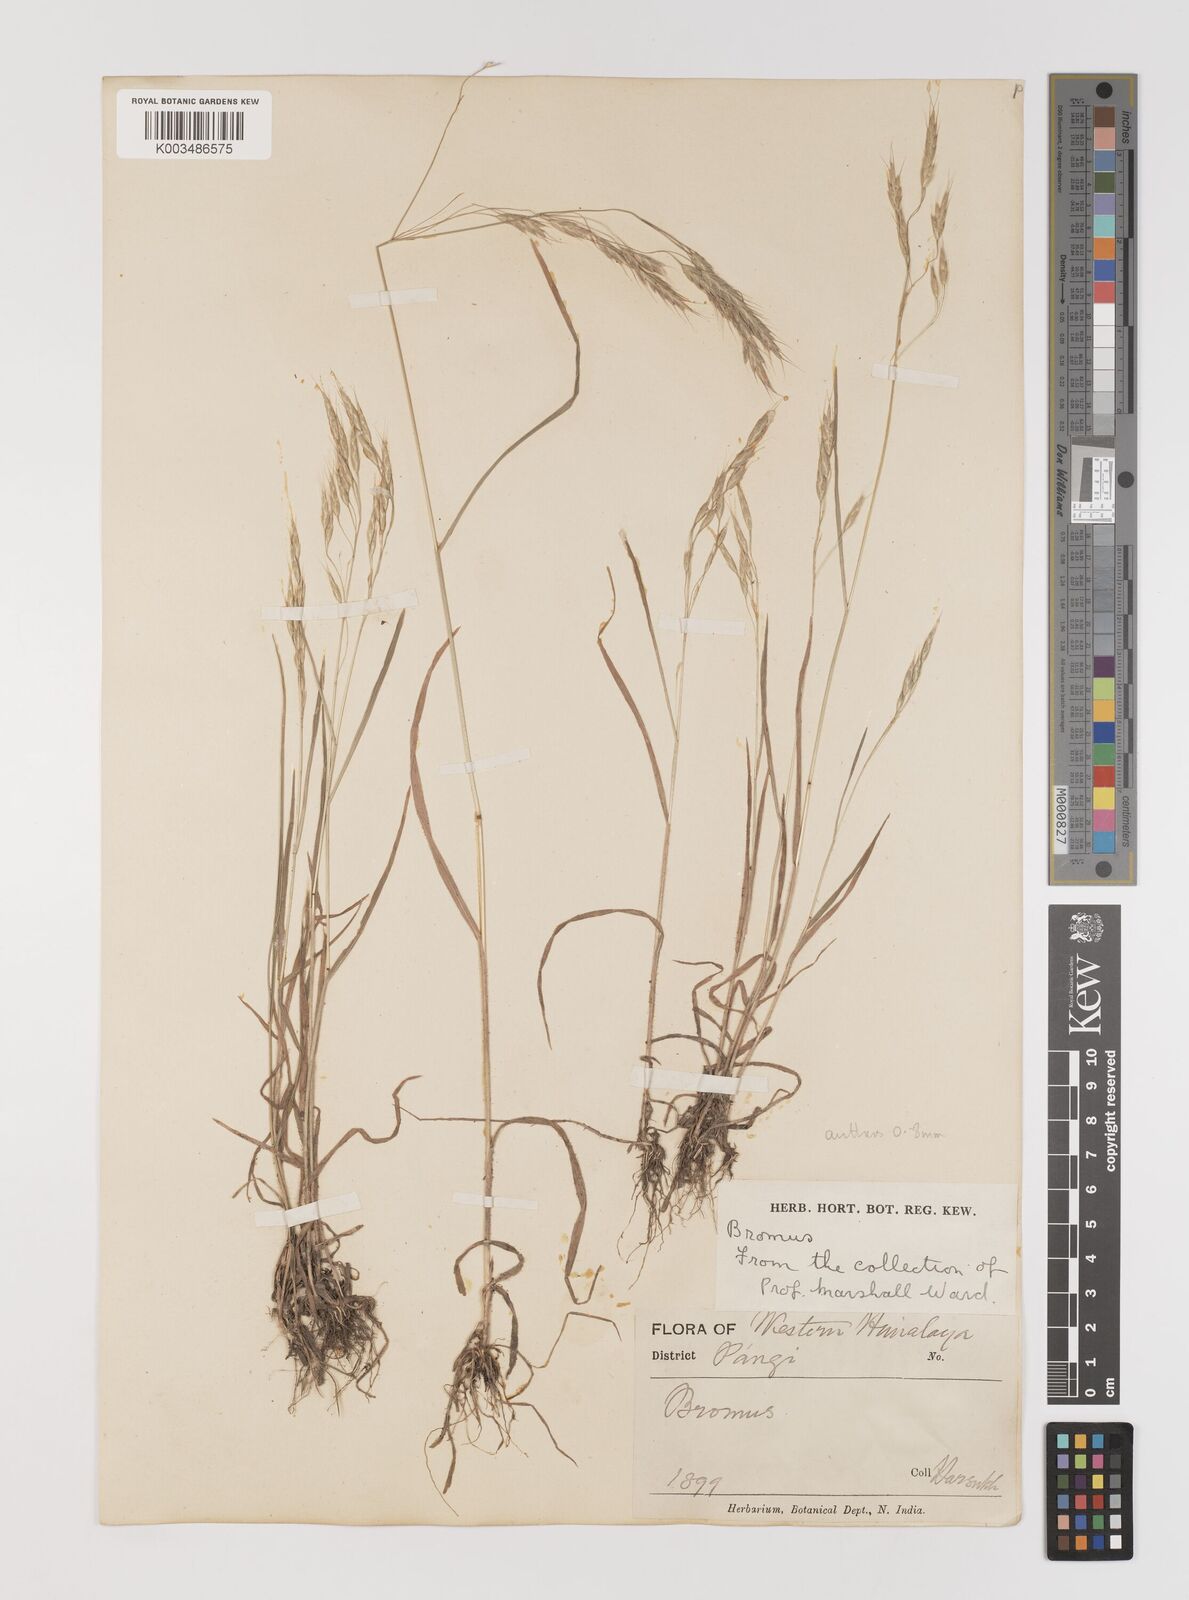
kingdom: Plantae
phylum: Tracheophyta
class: Liliopsida
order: Poales
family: Poaceae
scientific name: Poaceae
